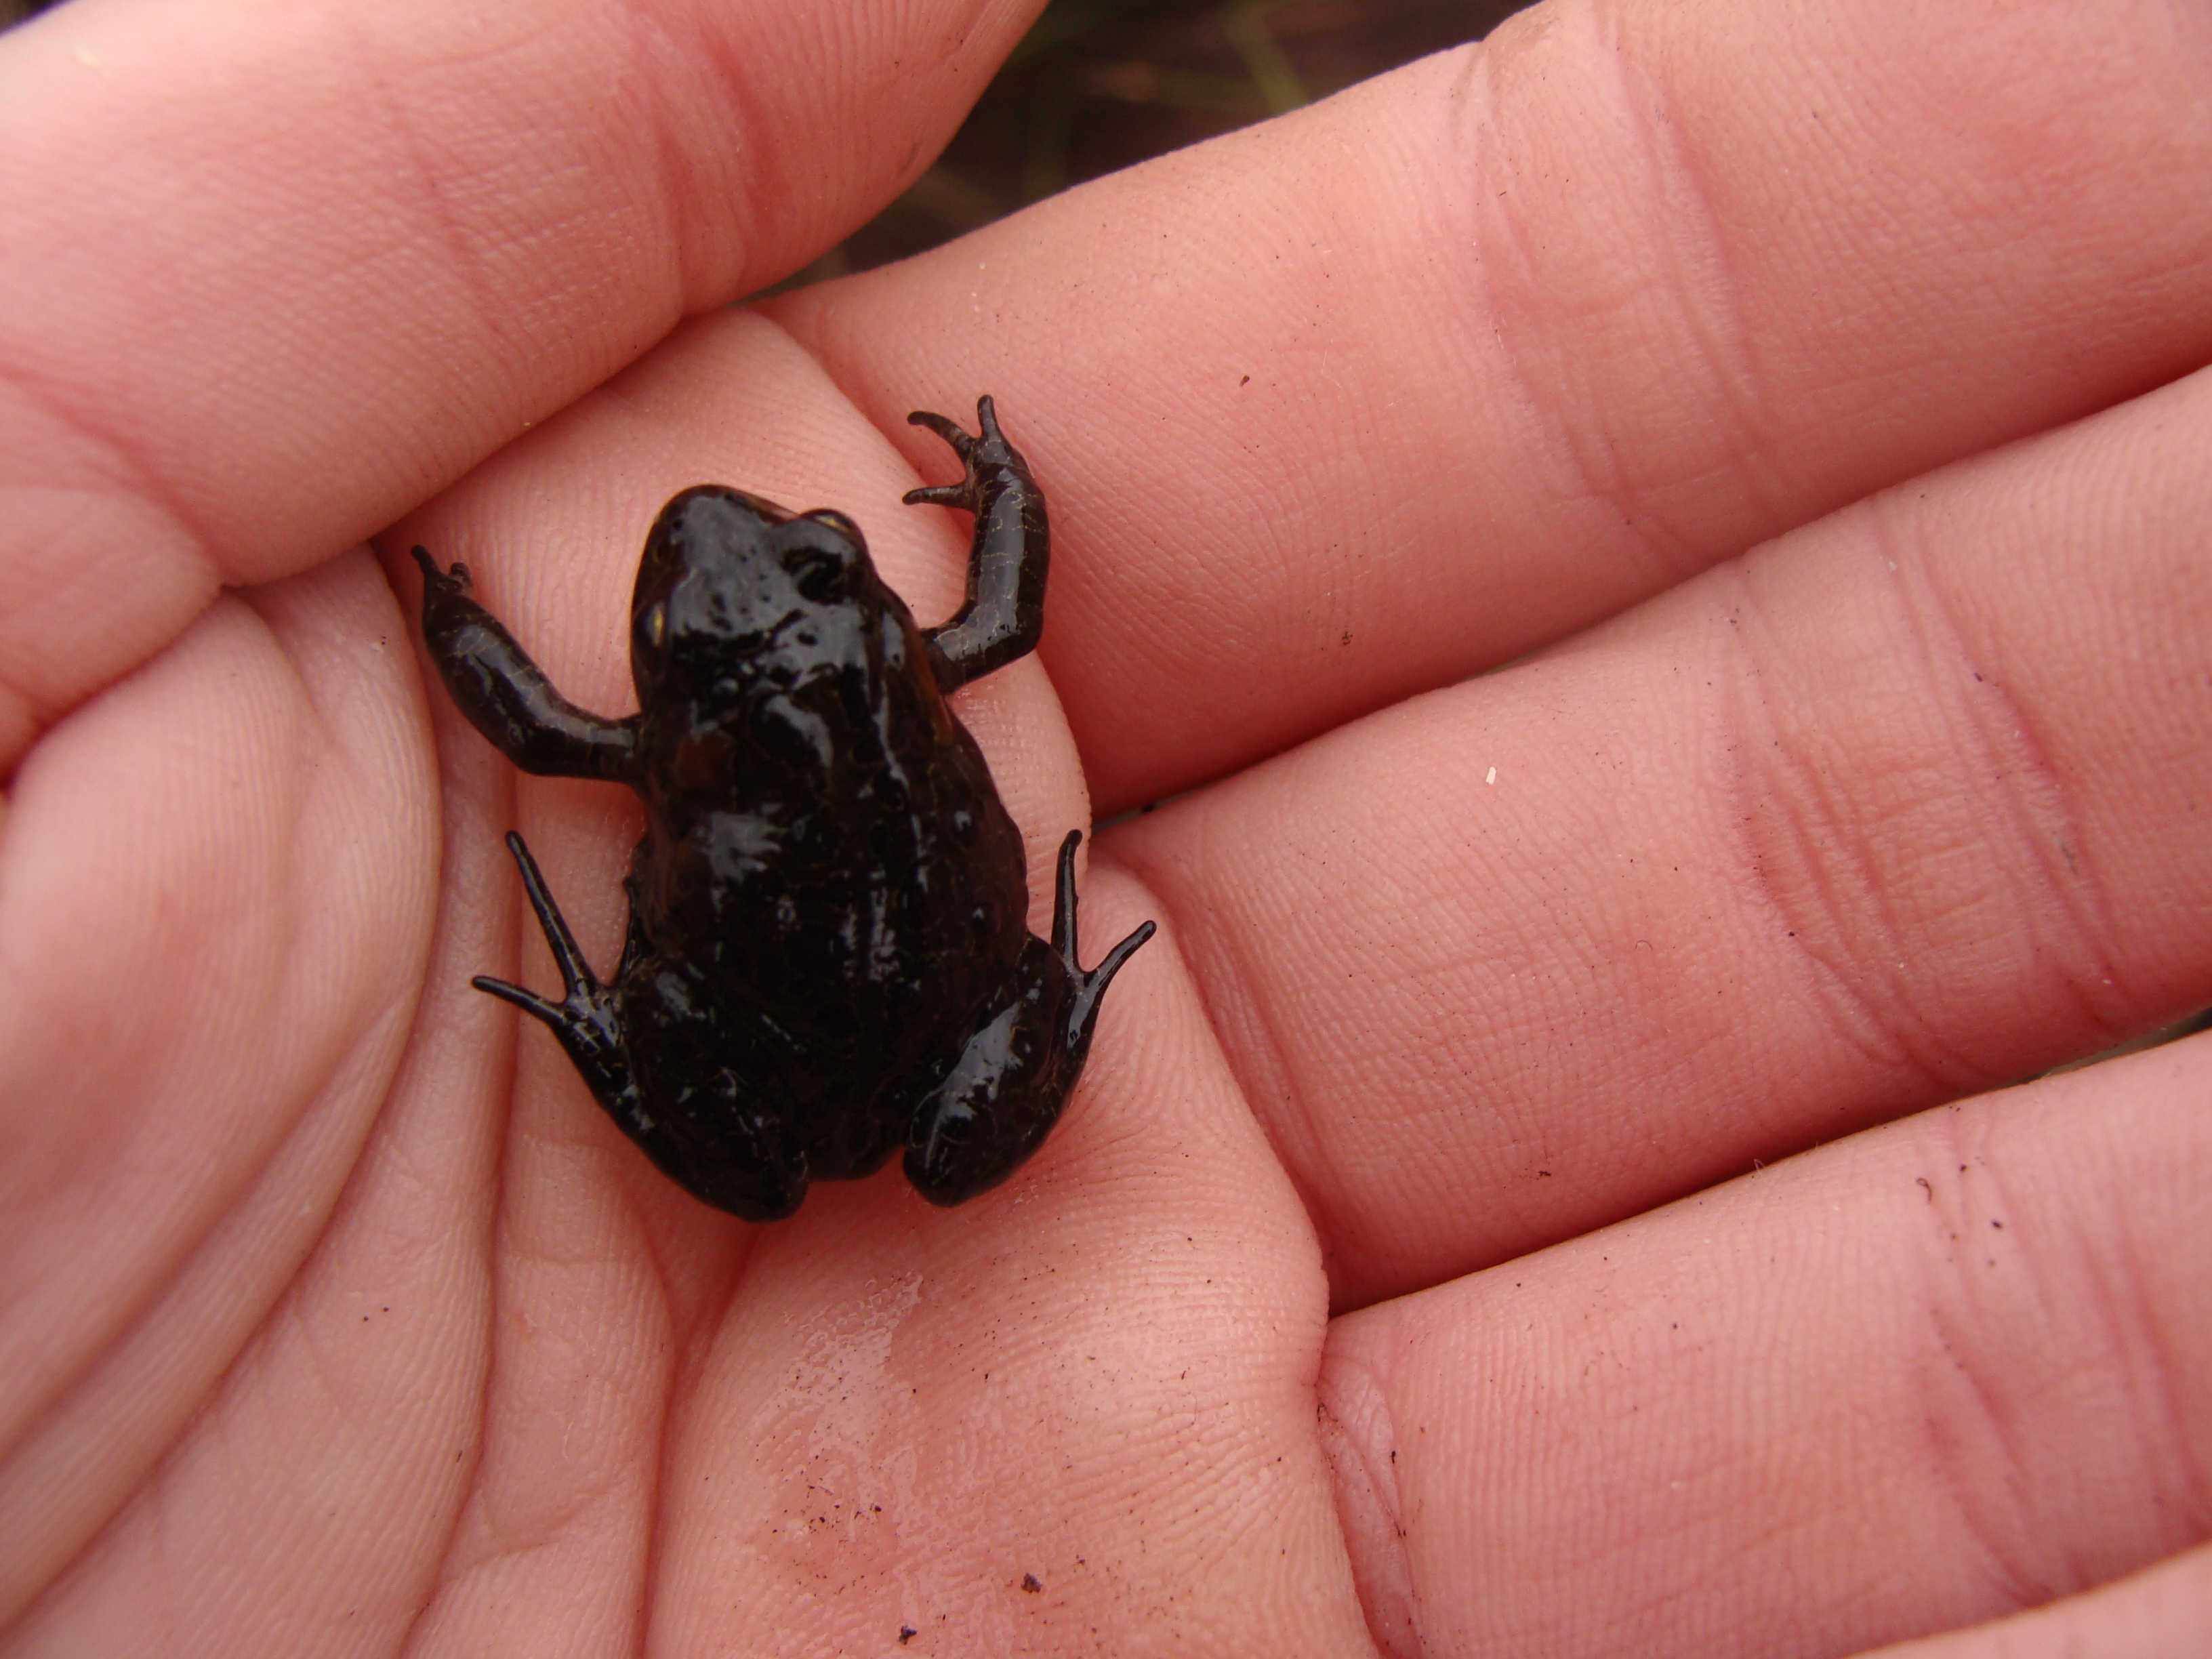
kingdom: Animalia
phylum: Chordata
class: Amphibia
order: Anura
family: Bufonidae
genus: Capensibufo
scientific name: Capensibufo rosei
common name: Cape mountain toad
